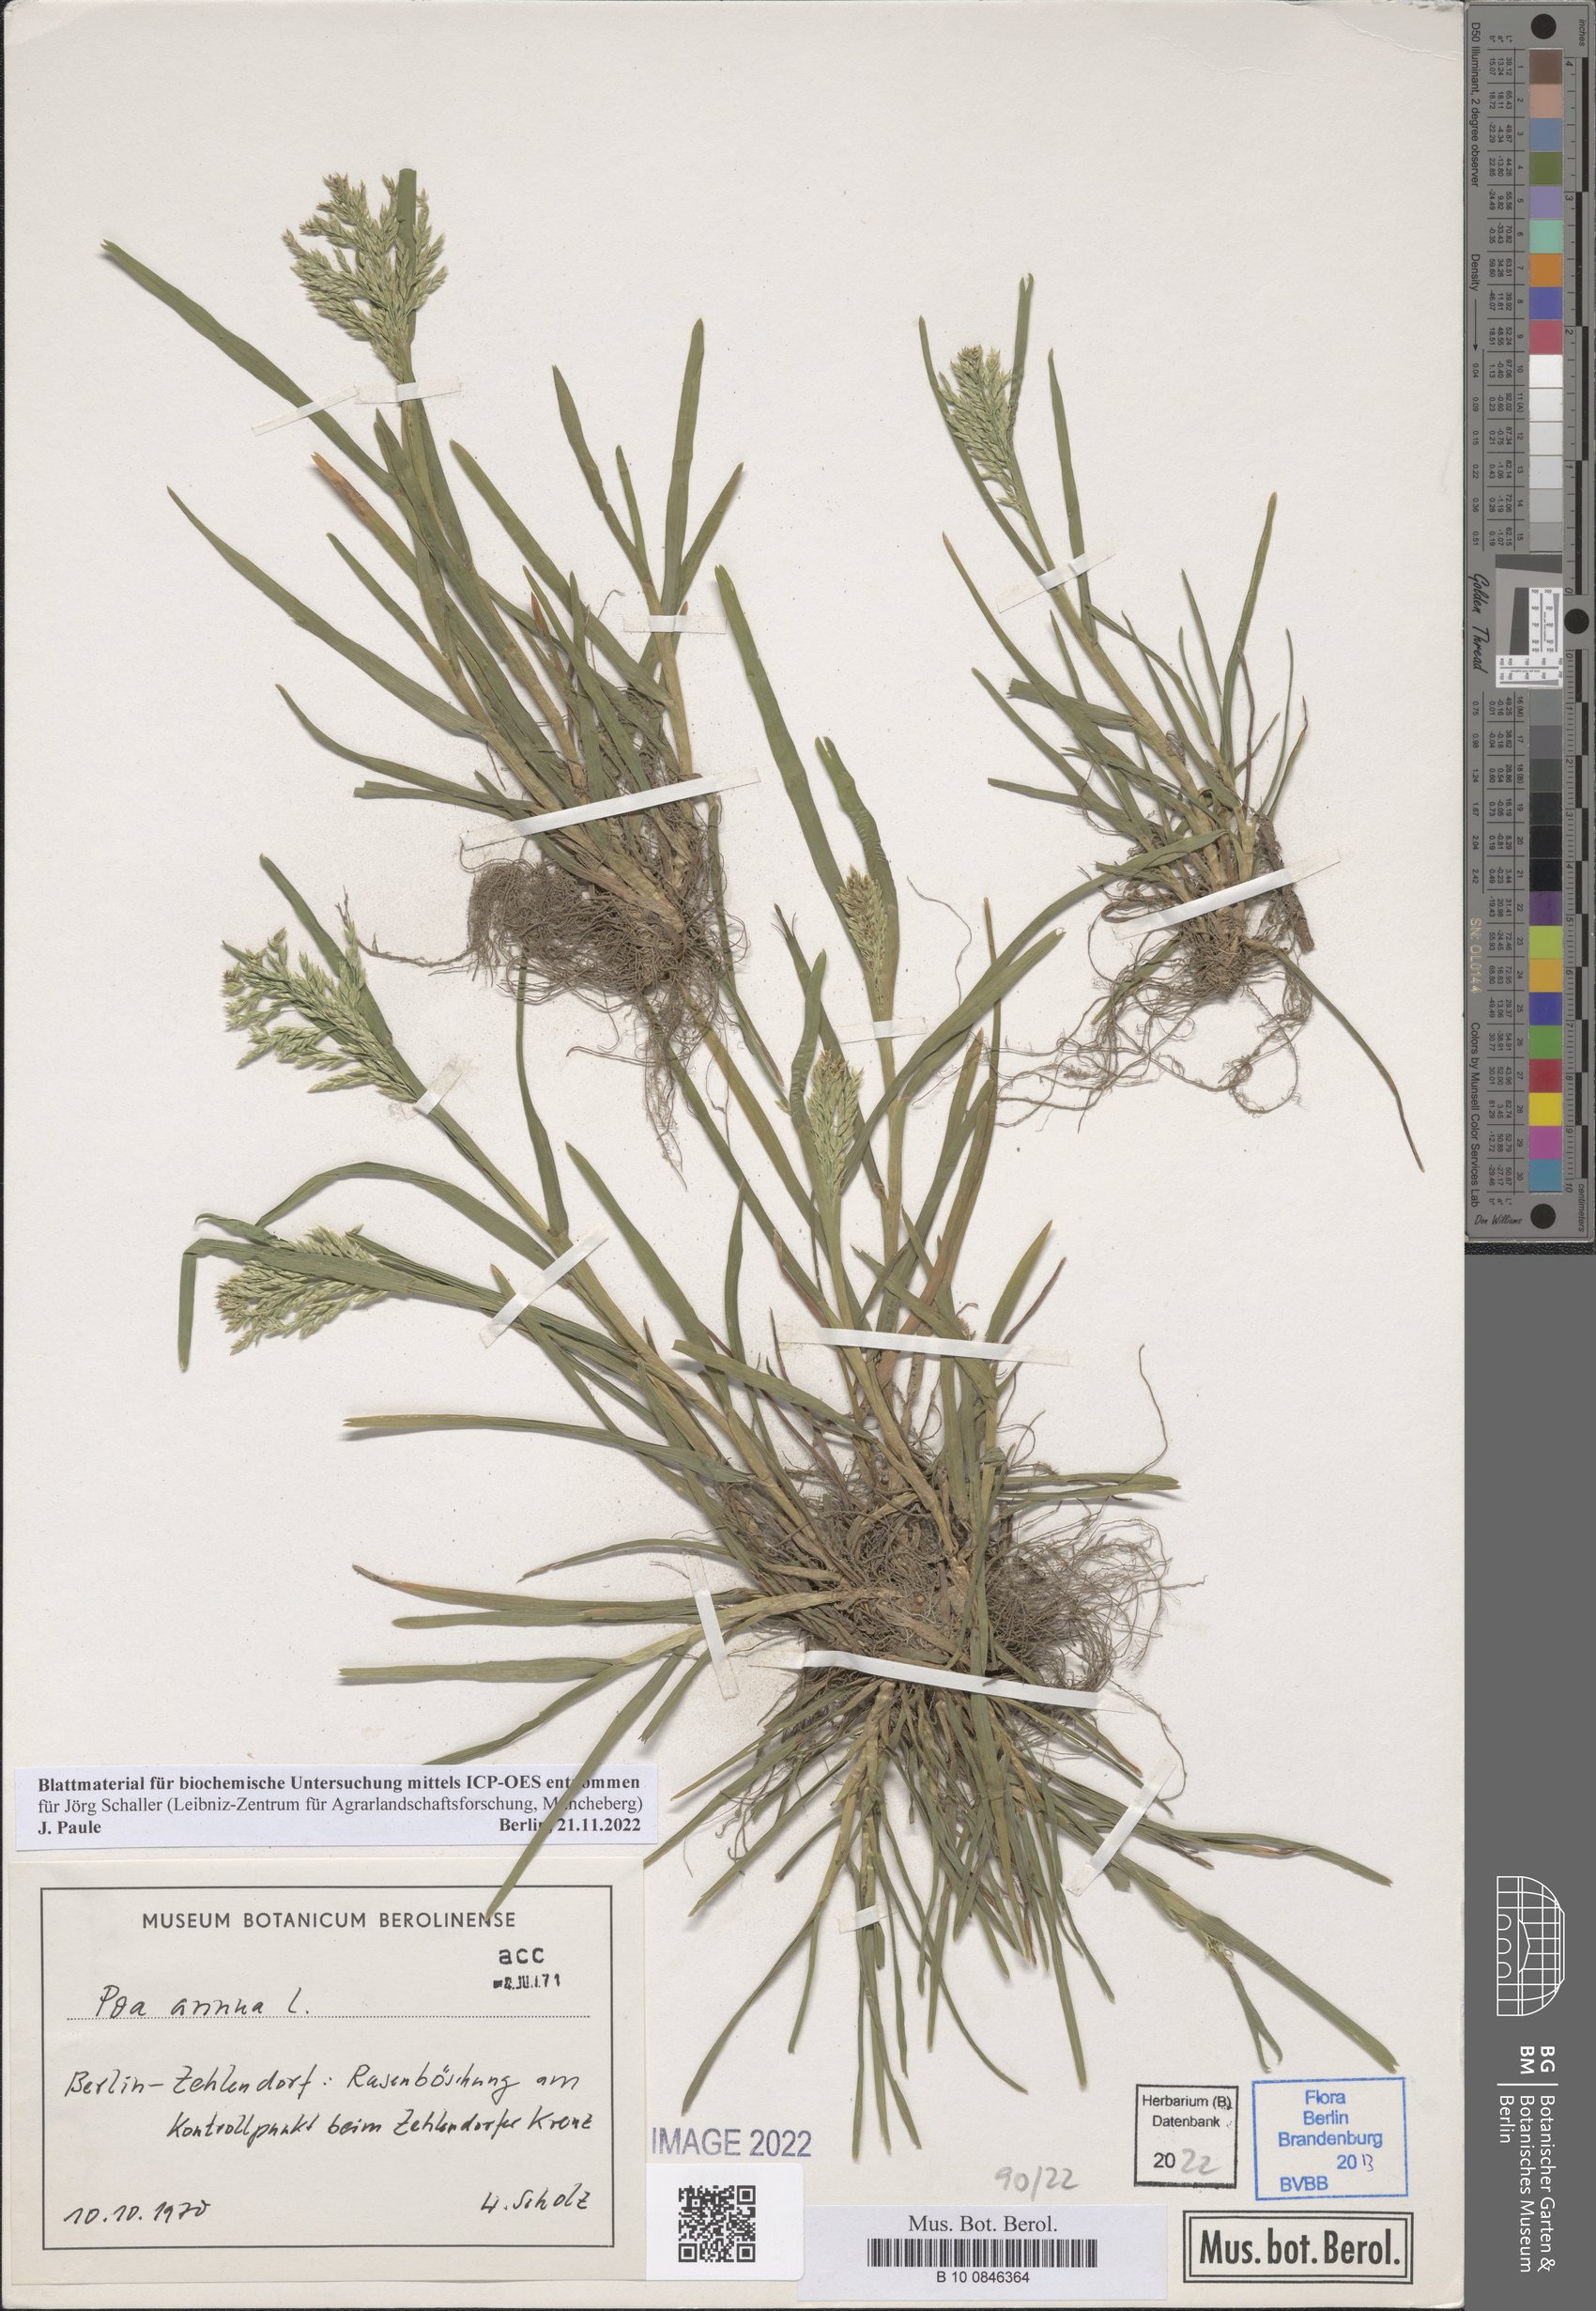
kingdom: Plantae
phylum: Tracheophyta
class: Liliopsida
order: Poales
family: Poaceae
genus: Poa
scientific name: Poa annua
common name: Annual bluegrass
